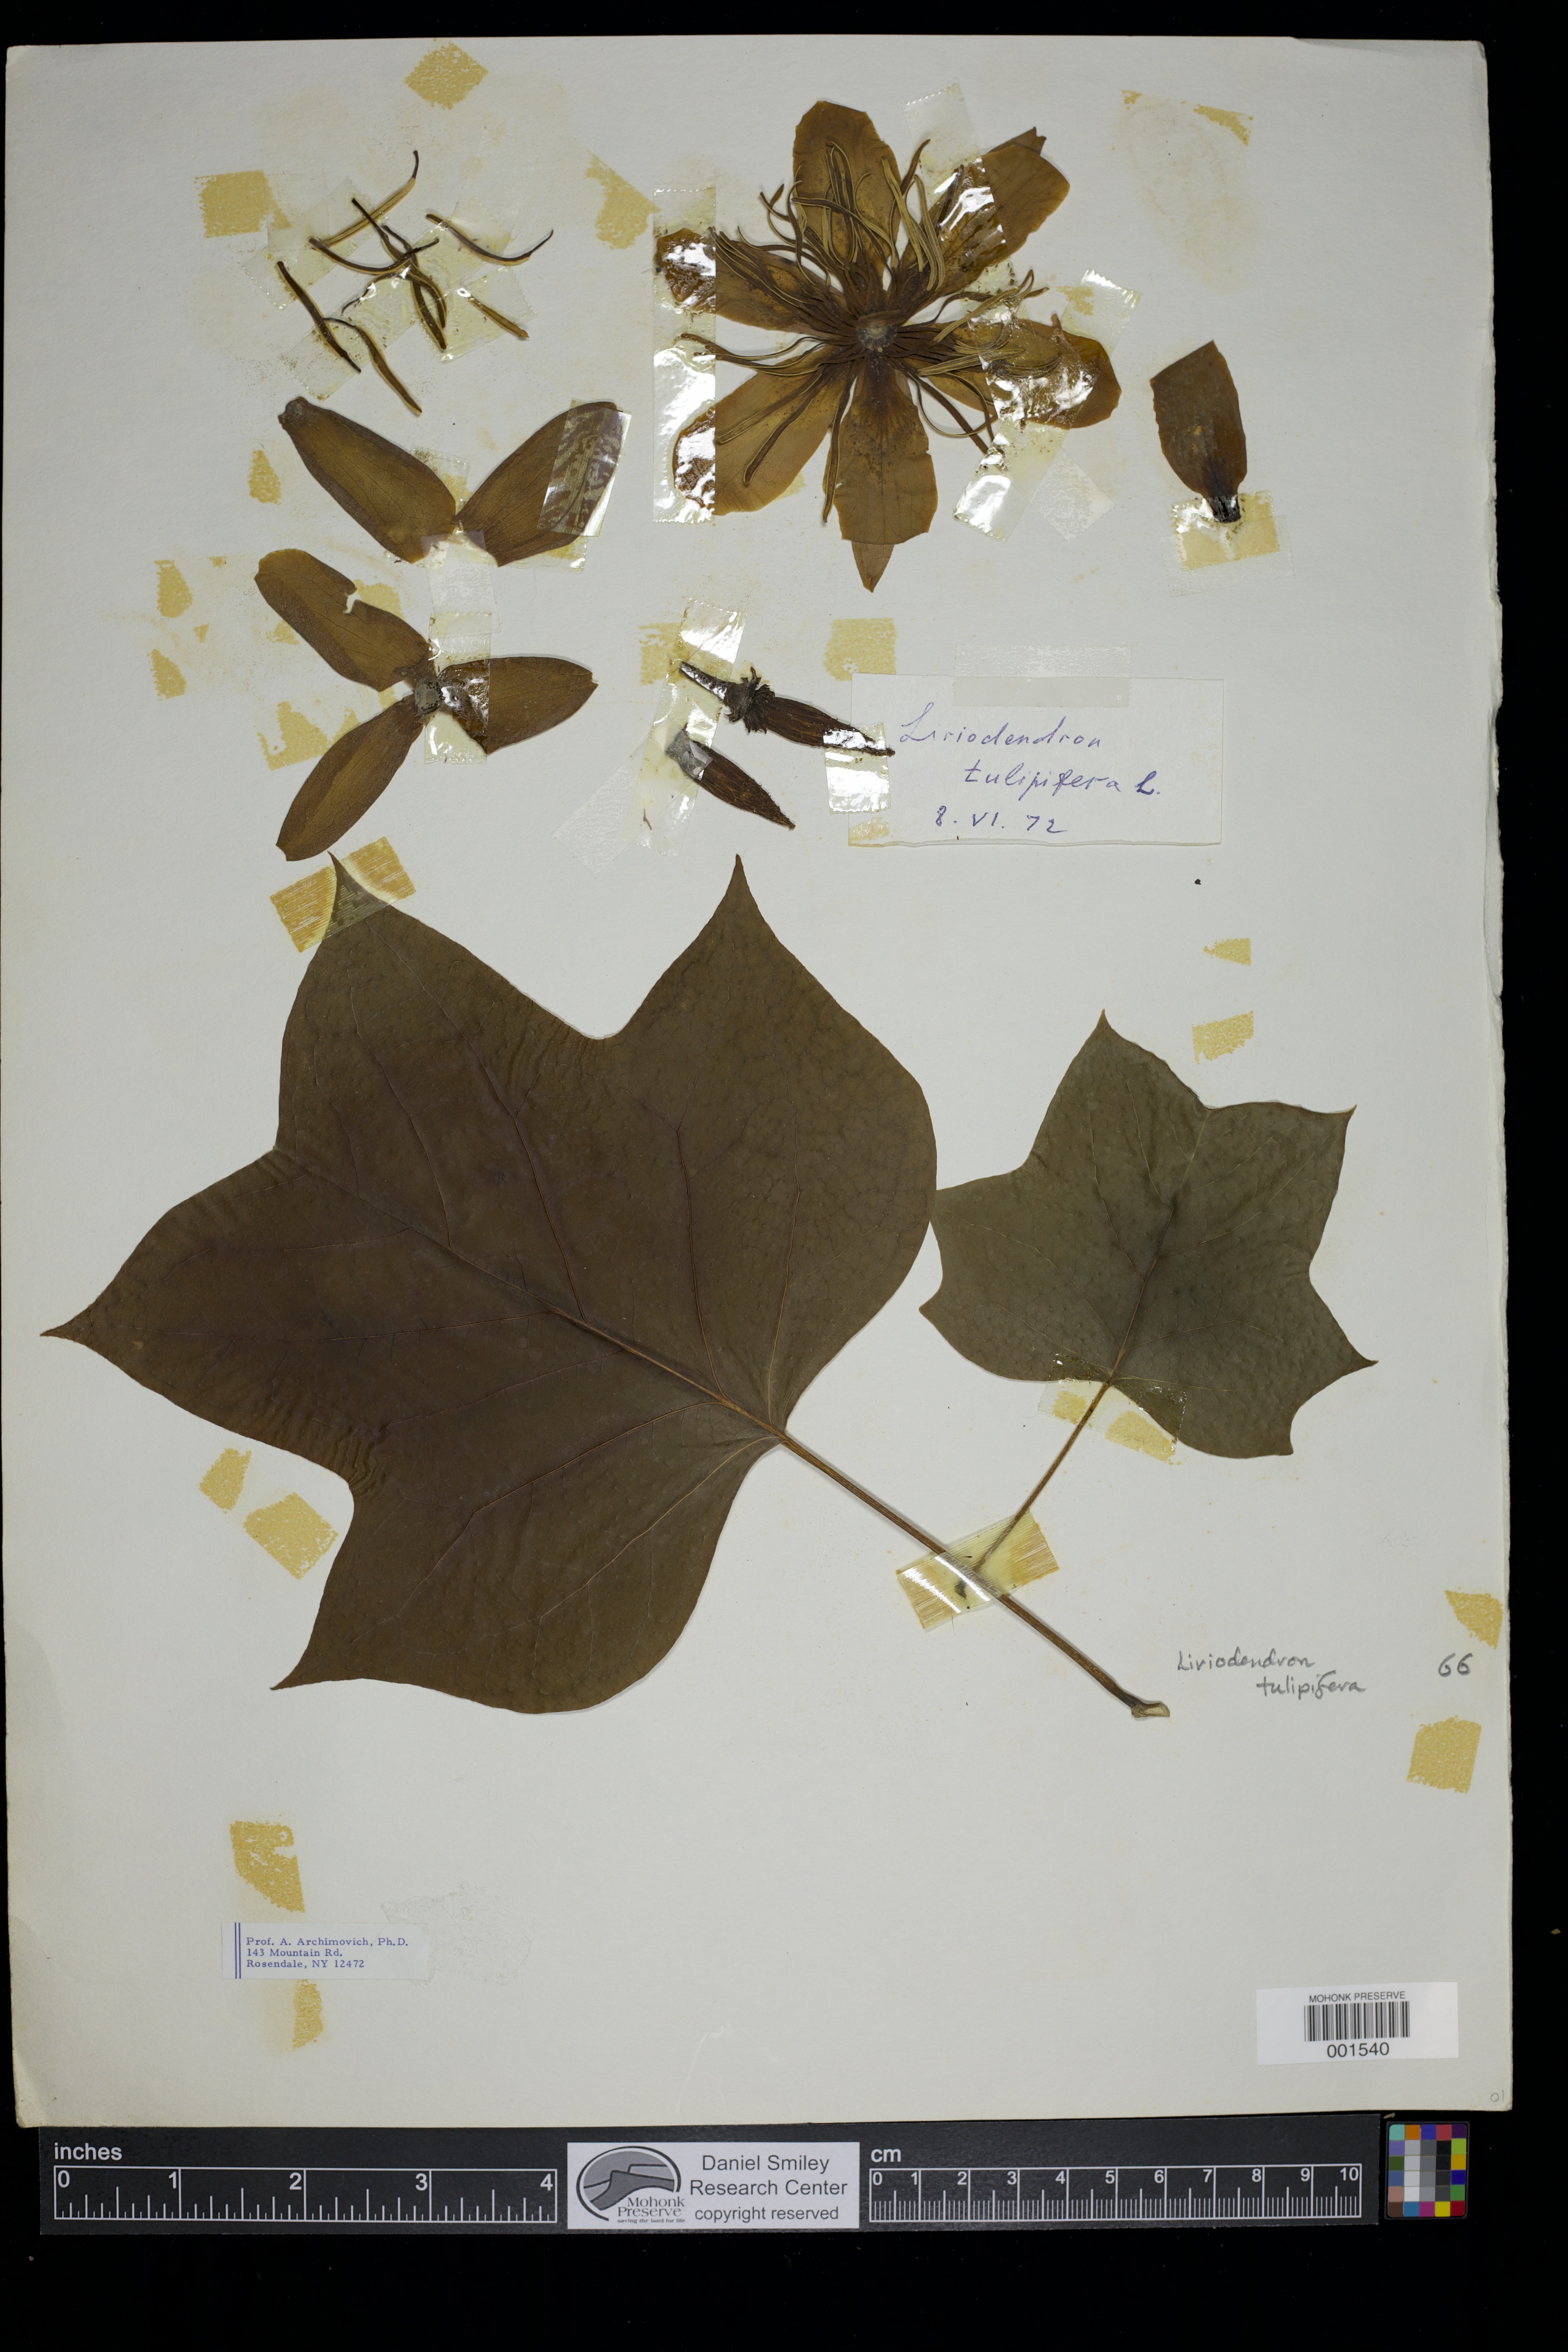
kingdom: Plantae
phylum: Tracheophyta
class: Magnoliopsida
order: Magnoliales
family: Magnoliaceae
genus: Liriodendron
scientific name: Liriodendron tulipifera
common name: Tulip tree
